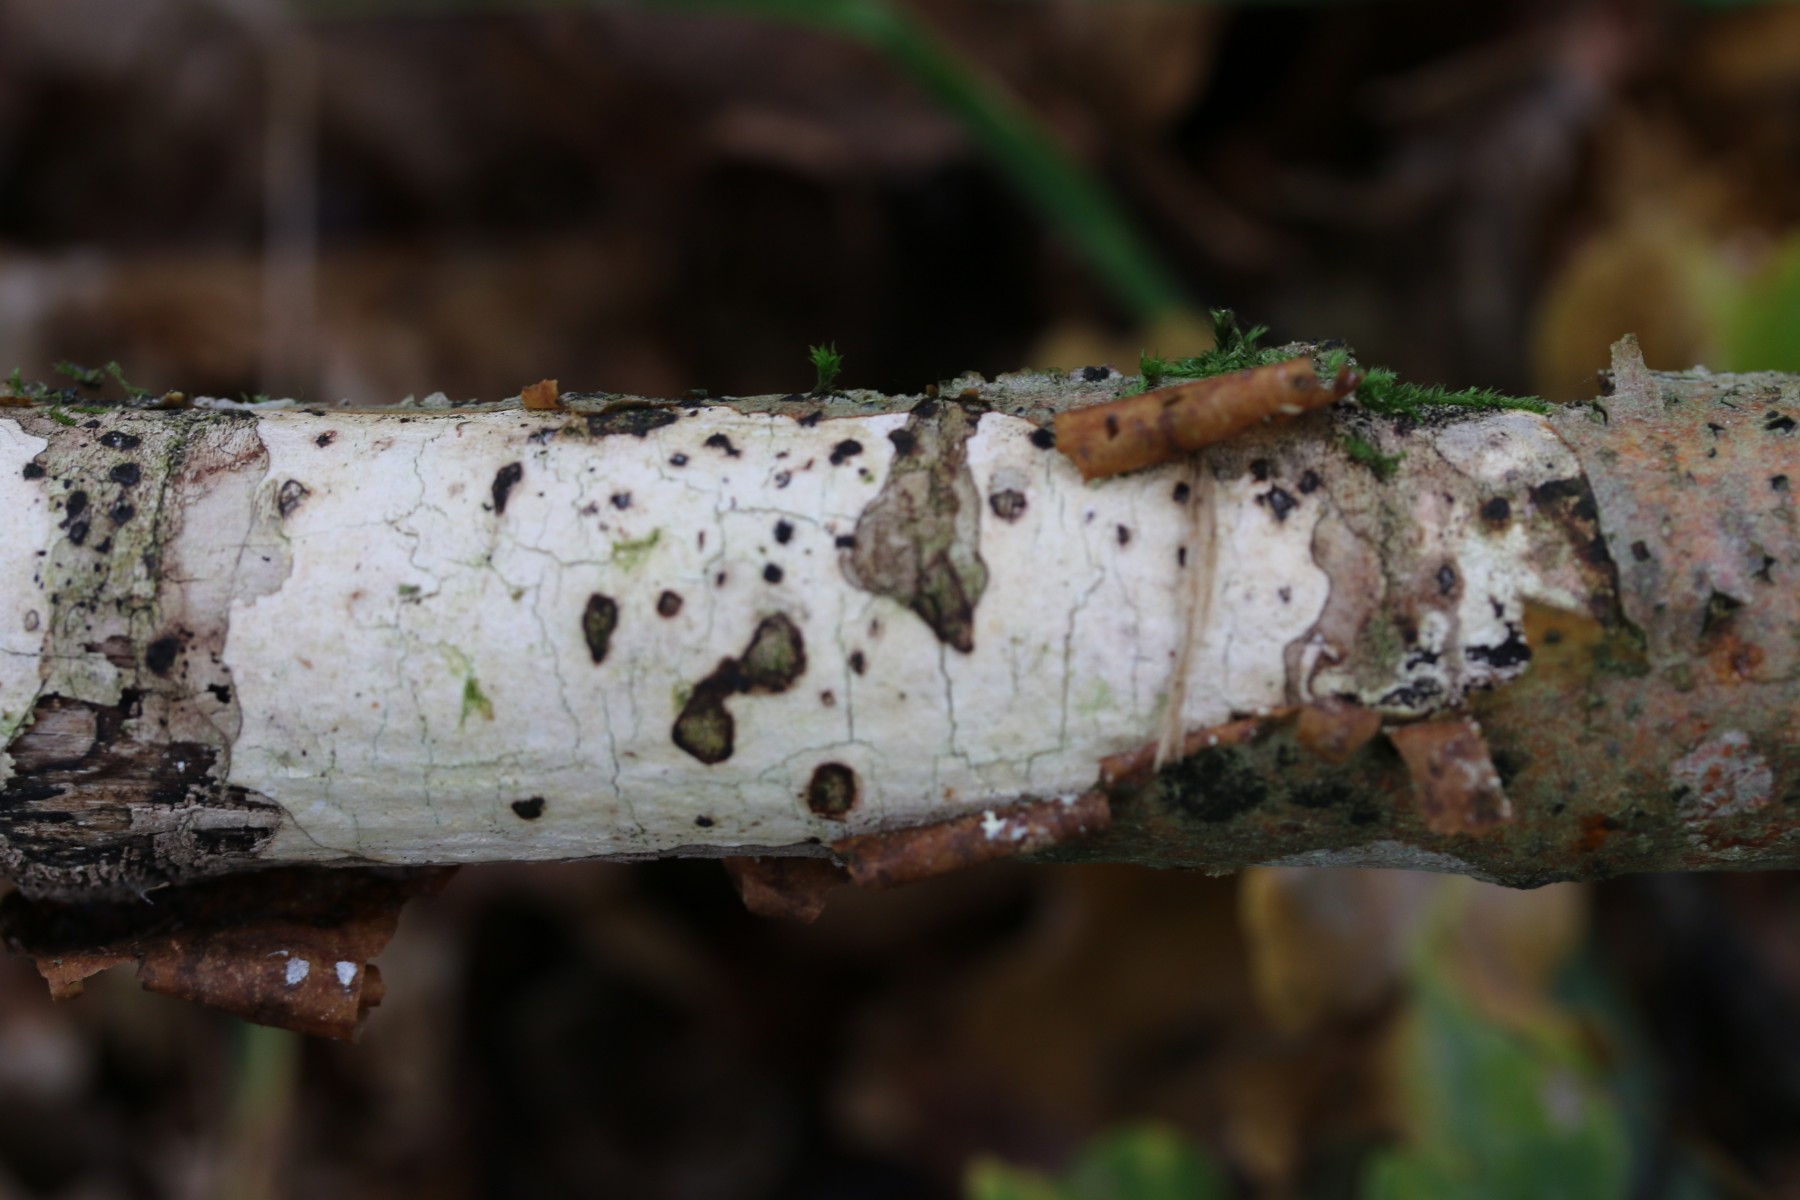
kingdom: Fungi
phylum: Basidiomycota
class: Agaricomycetes
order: Corticiales
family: Corticiaceae
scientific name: Corticiaceae
